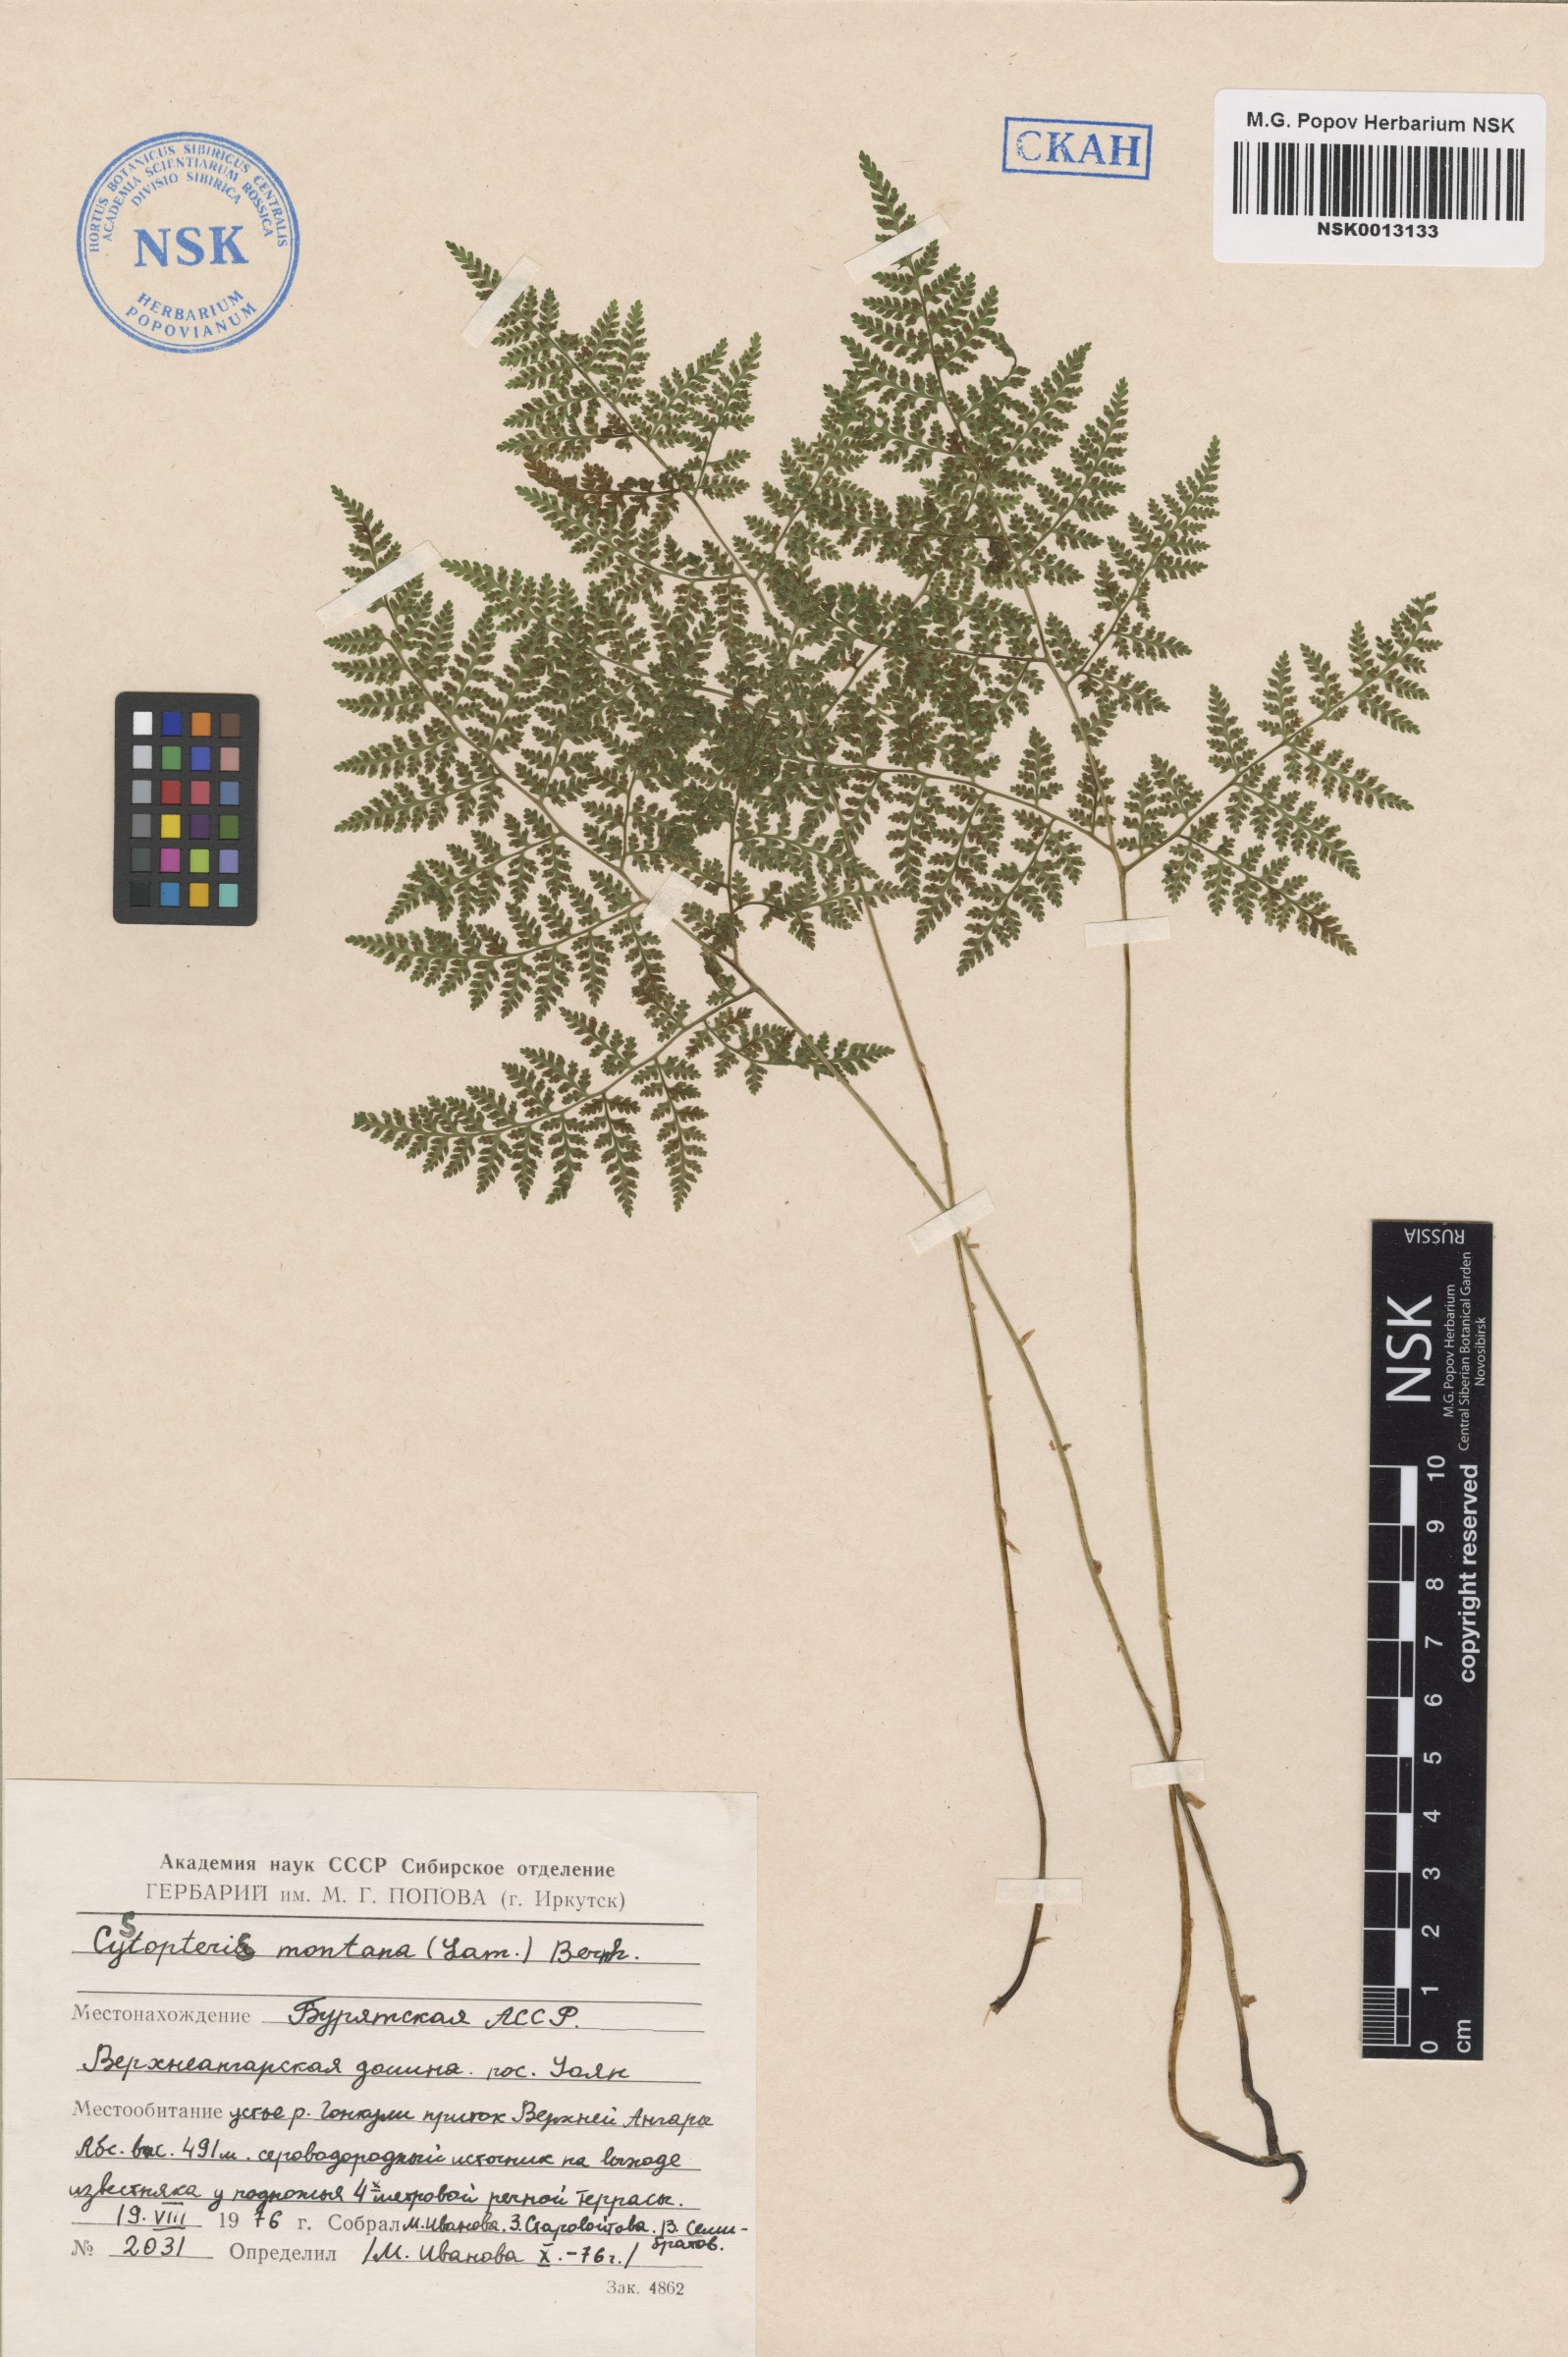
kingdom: Plantae
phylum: Tracheophyta
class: Polypodiopsida
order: Polypodiales
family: Cystopteridaceae
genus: Cystopteris
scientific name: Cystopteris montana
